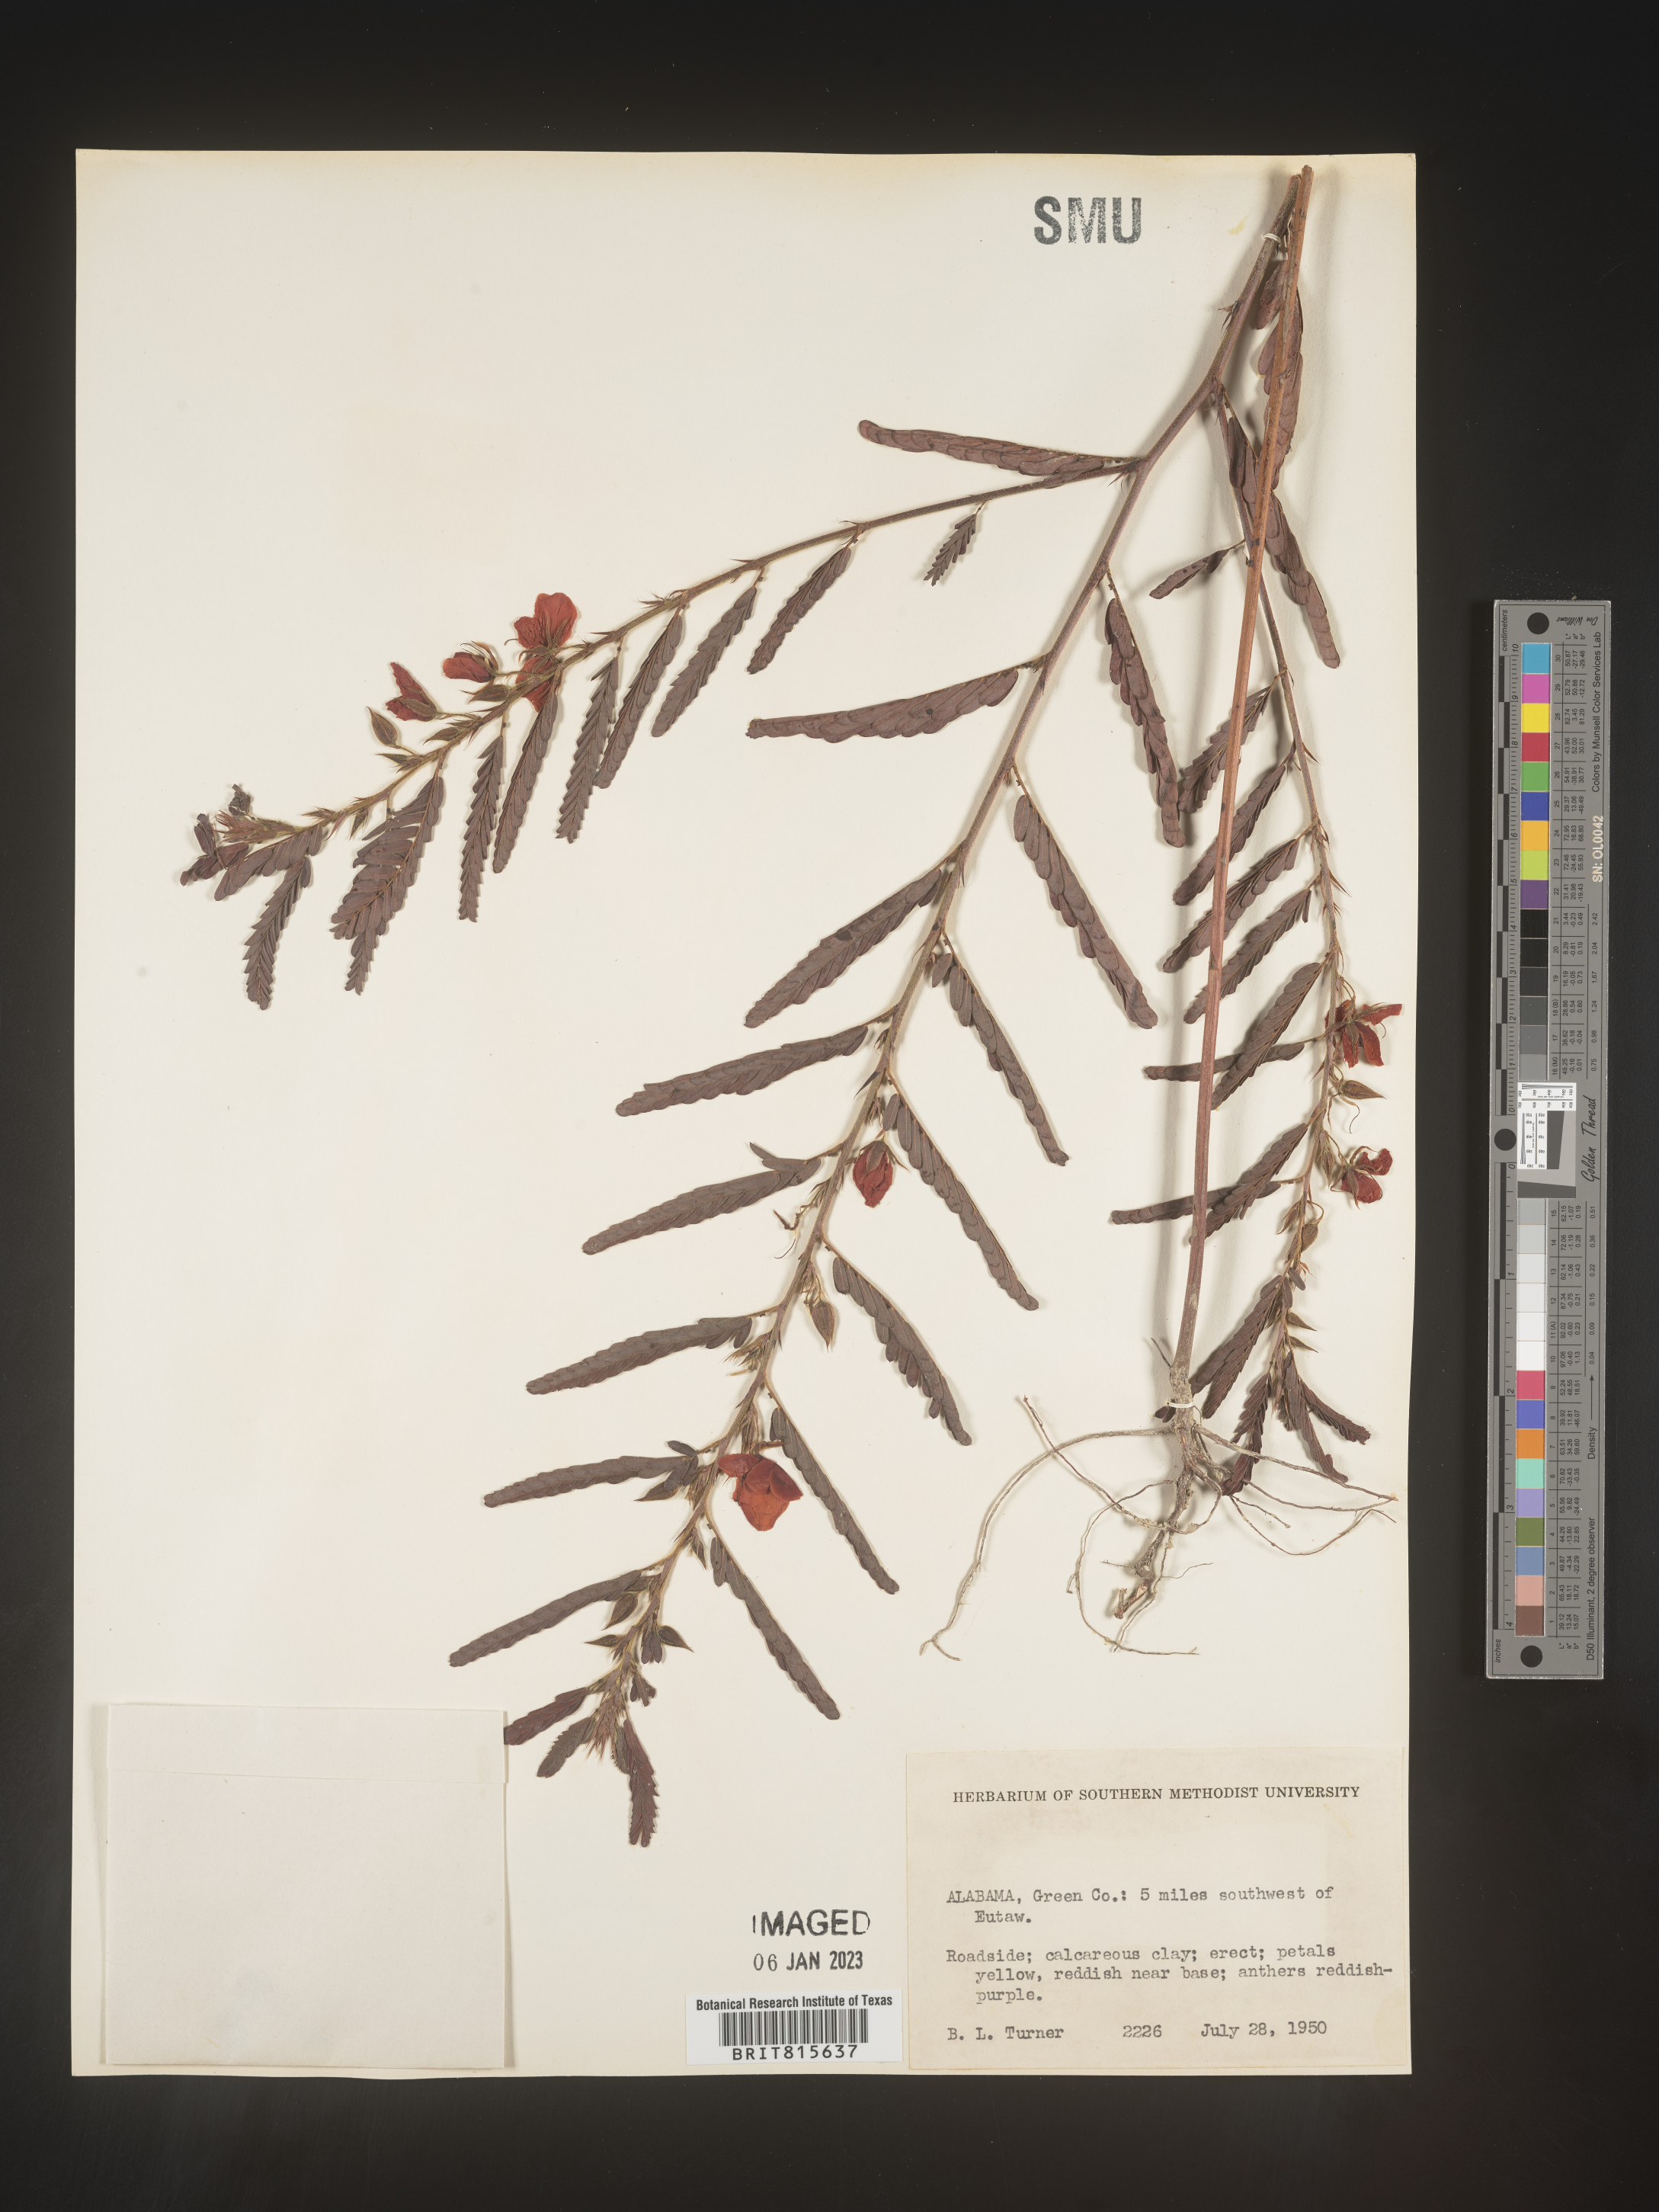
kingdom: Plantae
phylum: Tracheophyta
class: Magnoliopsida
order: Fabales
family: Fabaceae
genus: Cassia
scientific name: Cassia
